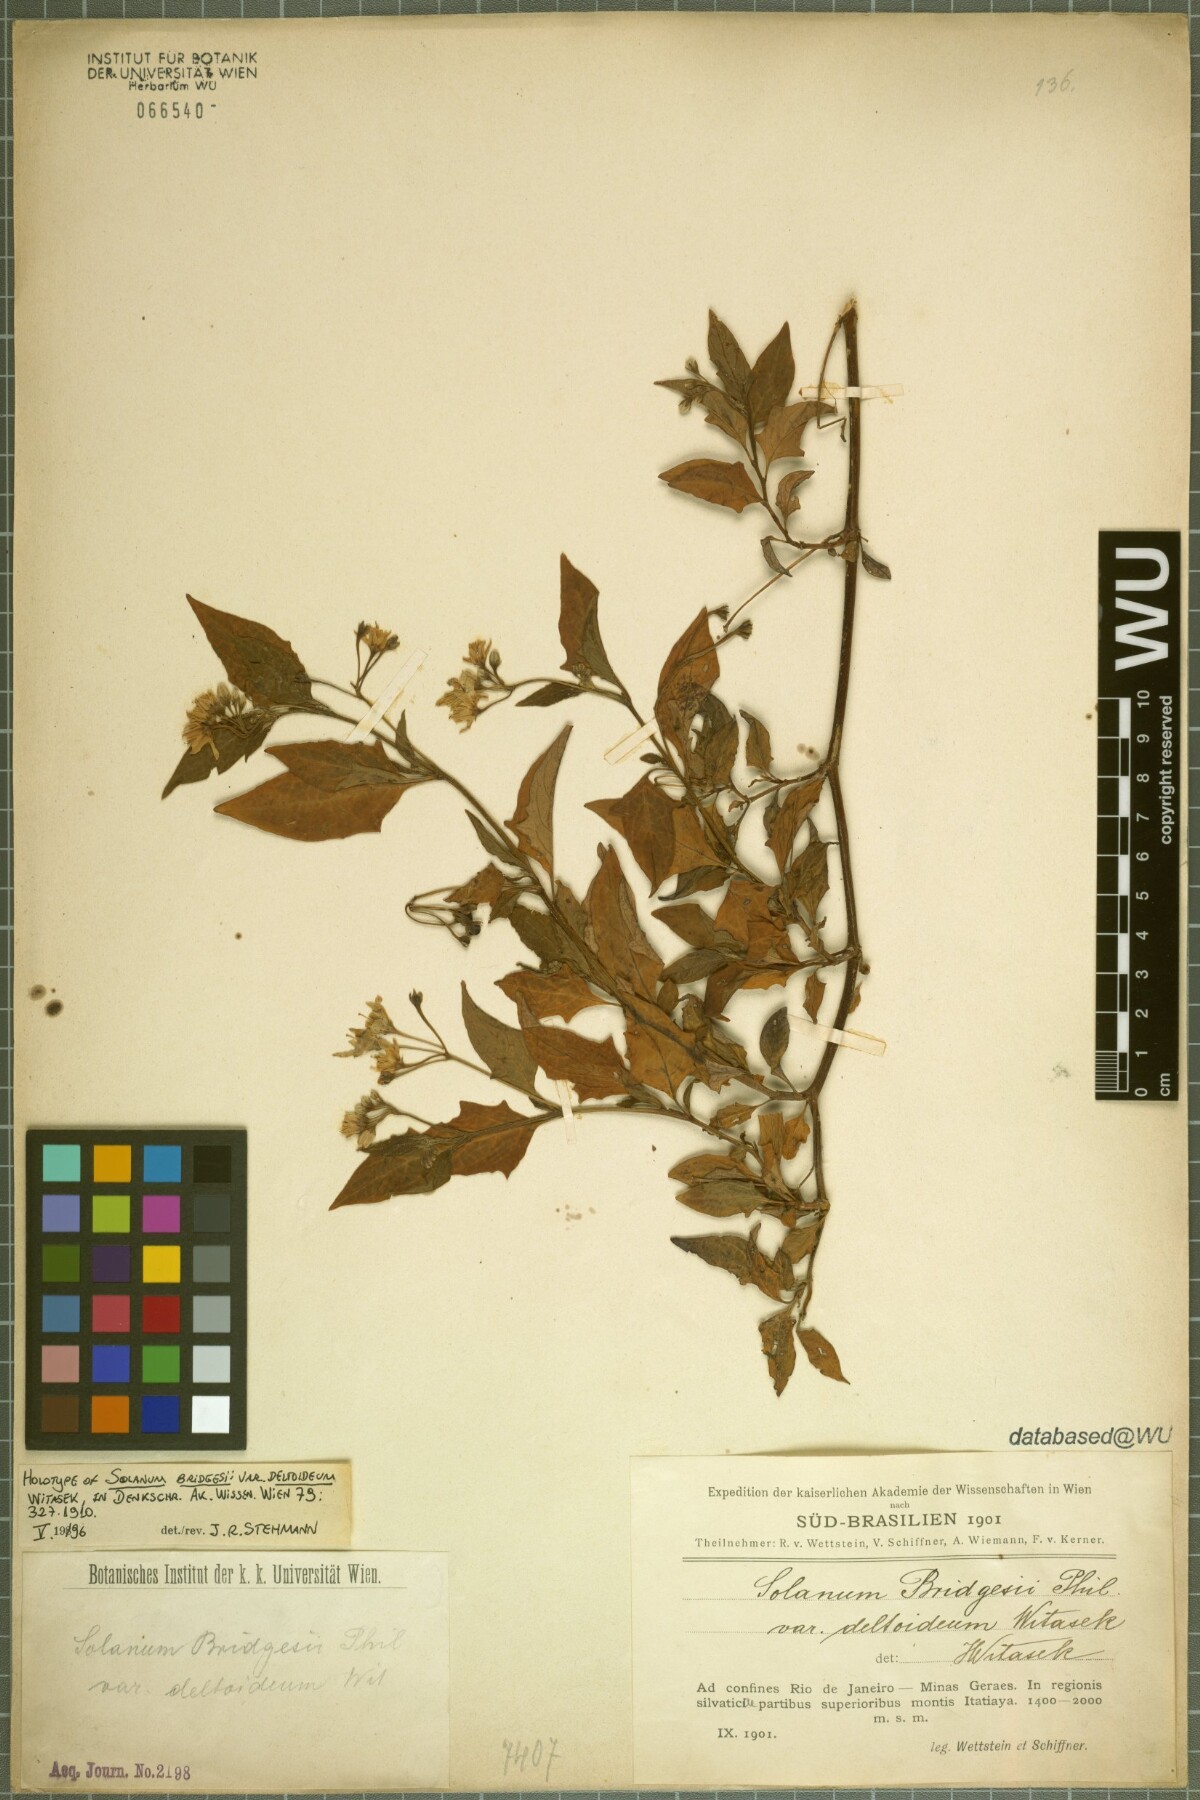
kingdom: Plantae
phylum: Tracheophyta
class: Magnoliopsida
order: Solanales
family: Solanaceae
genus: Solanum
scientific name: Solanum furcatum
